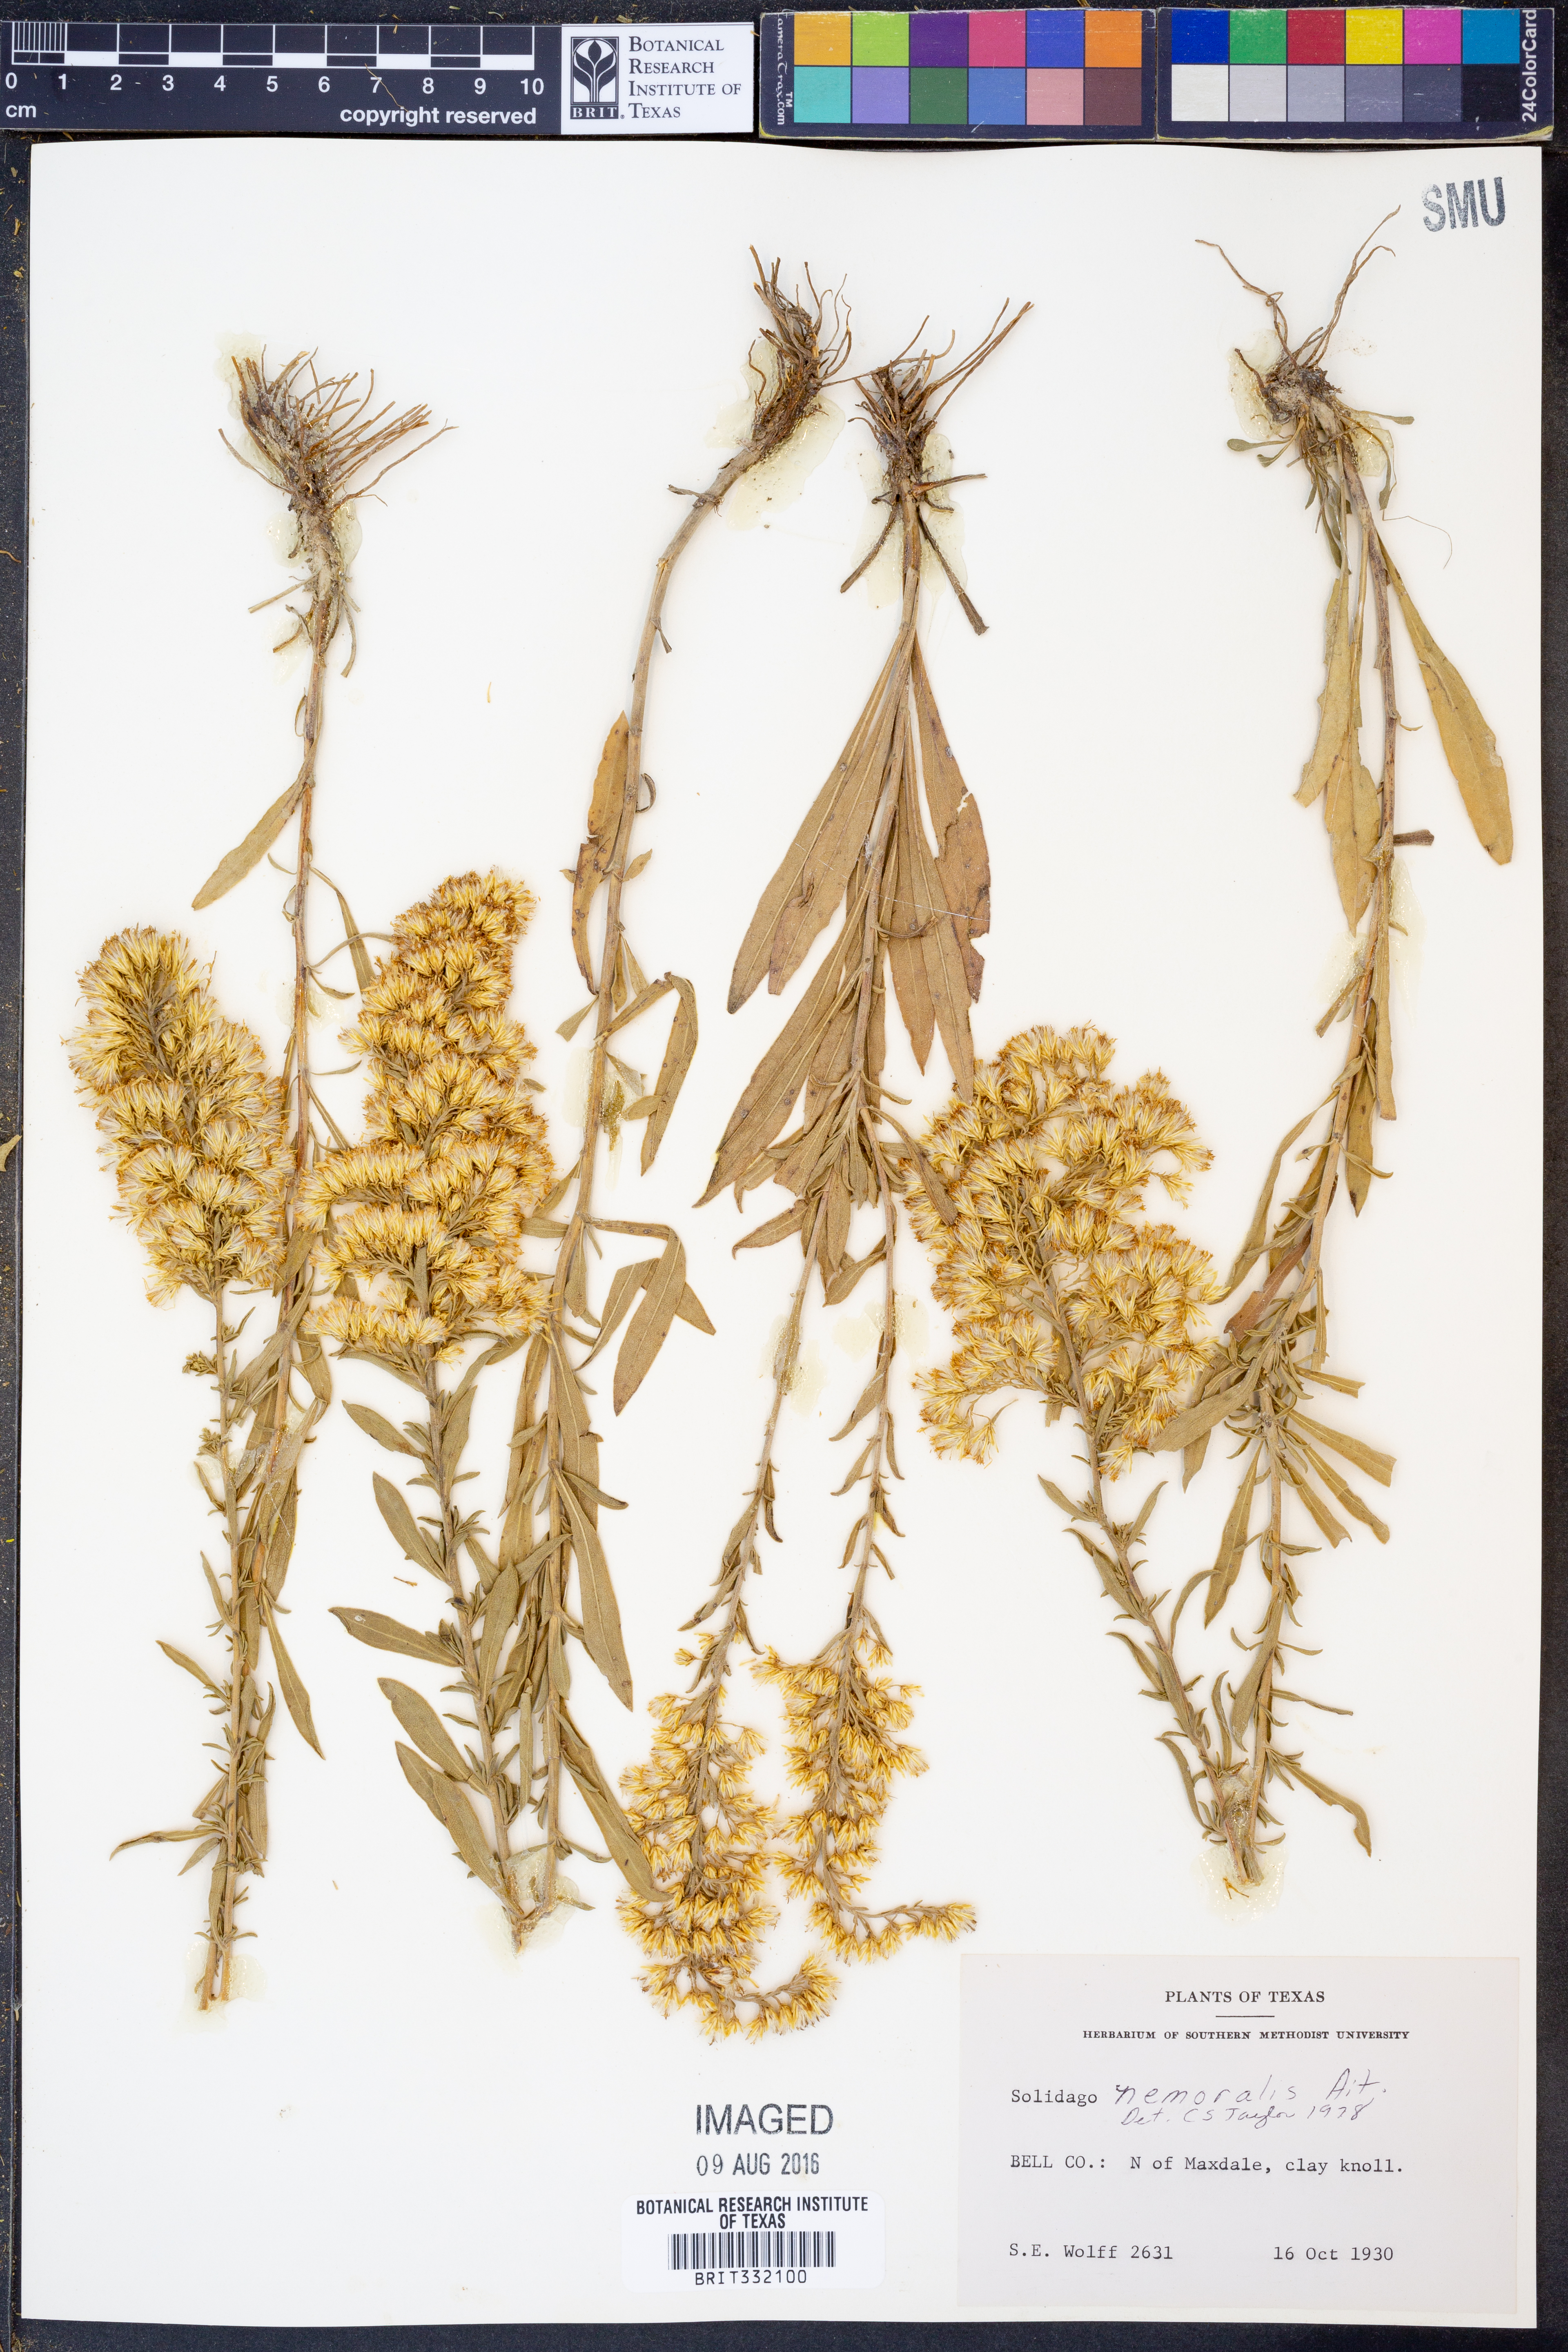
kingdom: Plantae
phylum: Tracheophyta
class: Magnoliopsida
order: Asterales
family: Asteraceae
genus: Solidago
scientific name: Solidago nemoralis
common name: Grey goldenrod
